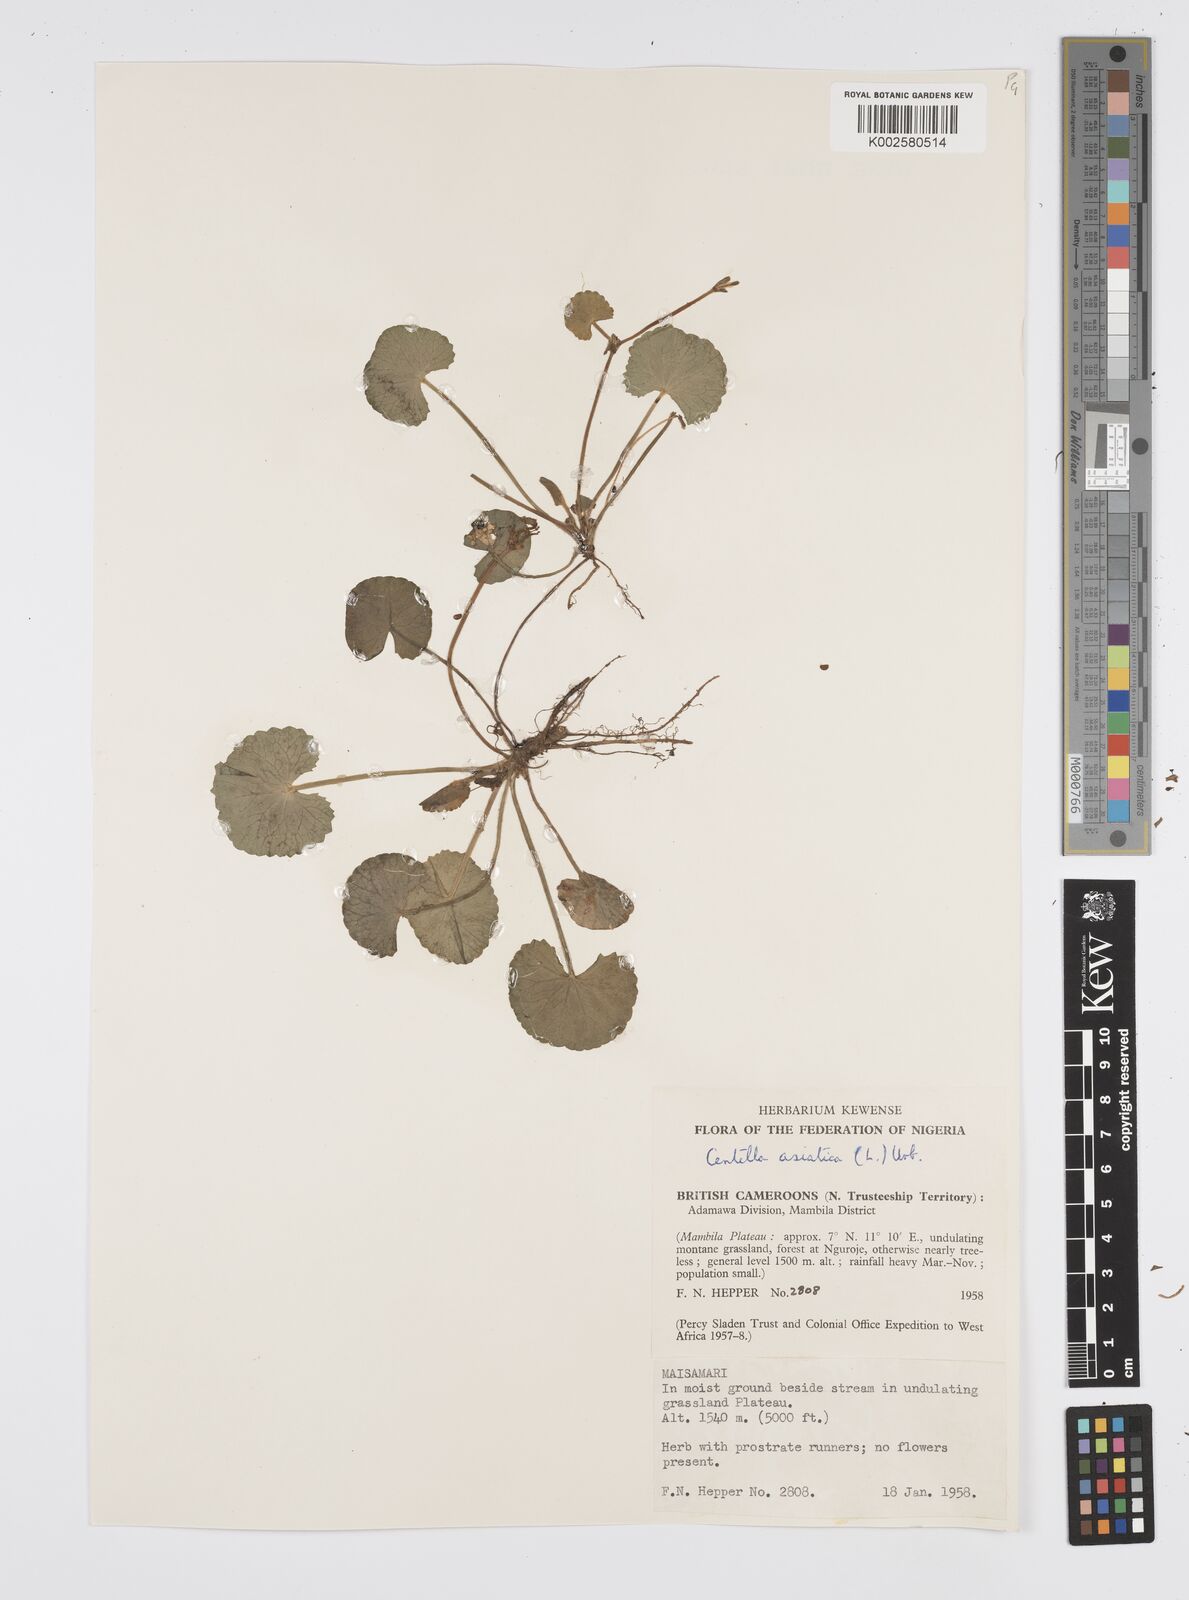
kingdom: Plantae
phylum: Tracheophyta
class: Magnoliopsida
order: Apiales
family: Apiaceae
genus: Centella
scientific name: Centella asiatica
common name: Spadeleaf
